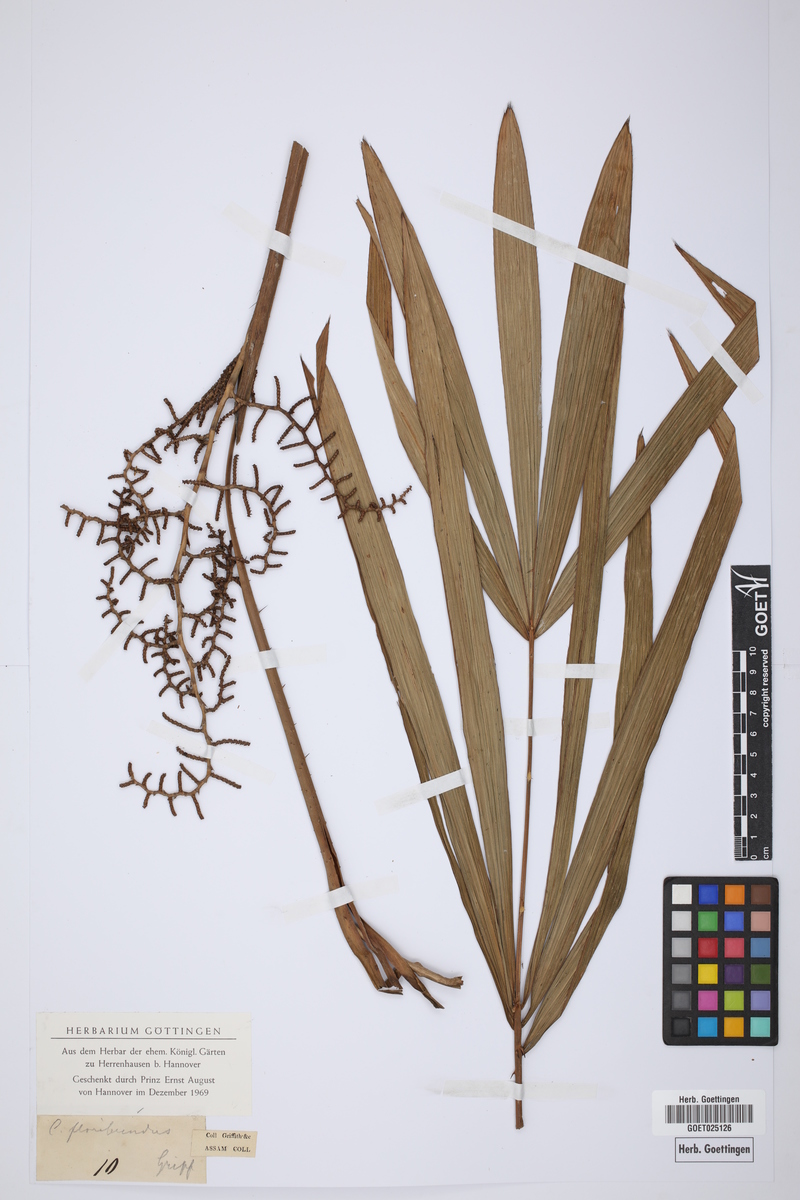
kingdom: Plantae
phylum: Tracheophyta
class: Liliopsida
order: Arecales
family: Arecaceae
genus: Calamus
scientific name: Calamus floribundus
